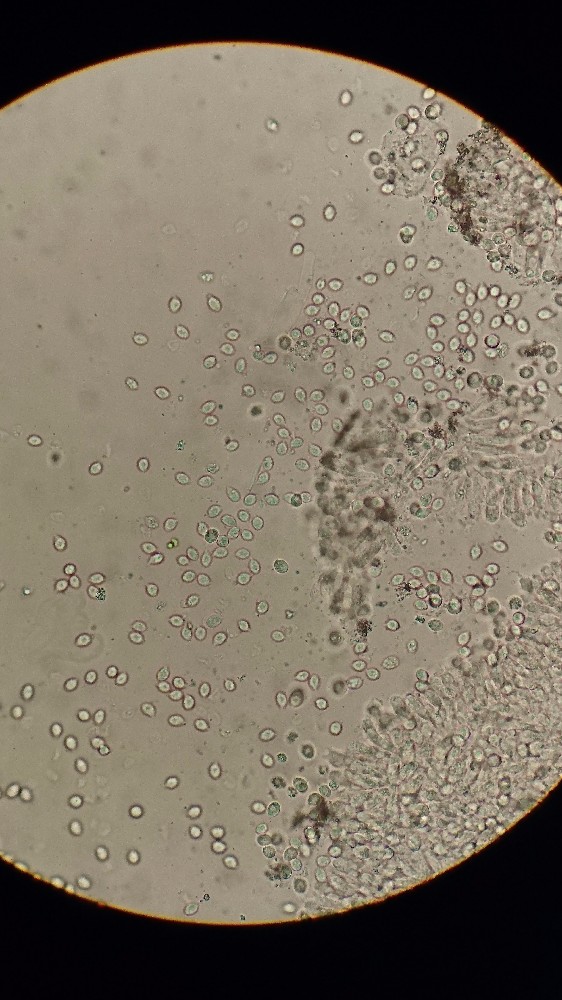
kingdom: Fungi
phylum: Basidiomycota
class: Agaricomycetes
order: Agaricales
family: Porotheleaceae
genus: Phloeomana
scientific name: Phloeomana hiemalis
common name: sen huesvamp
